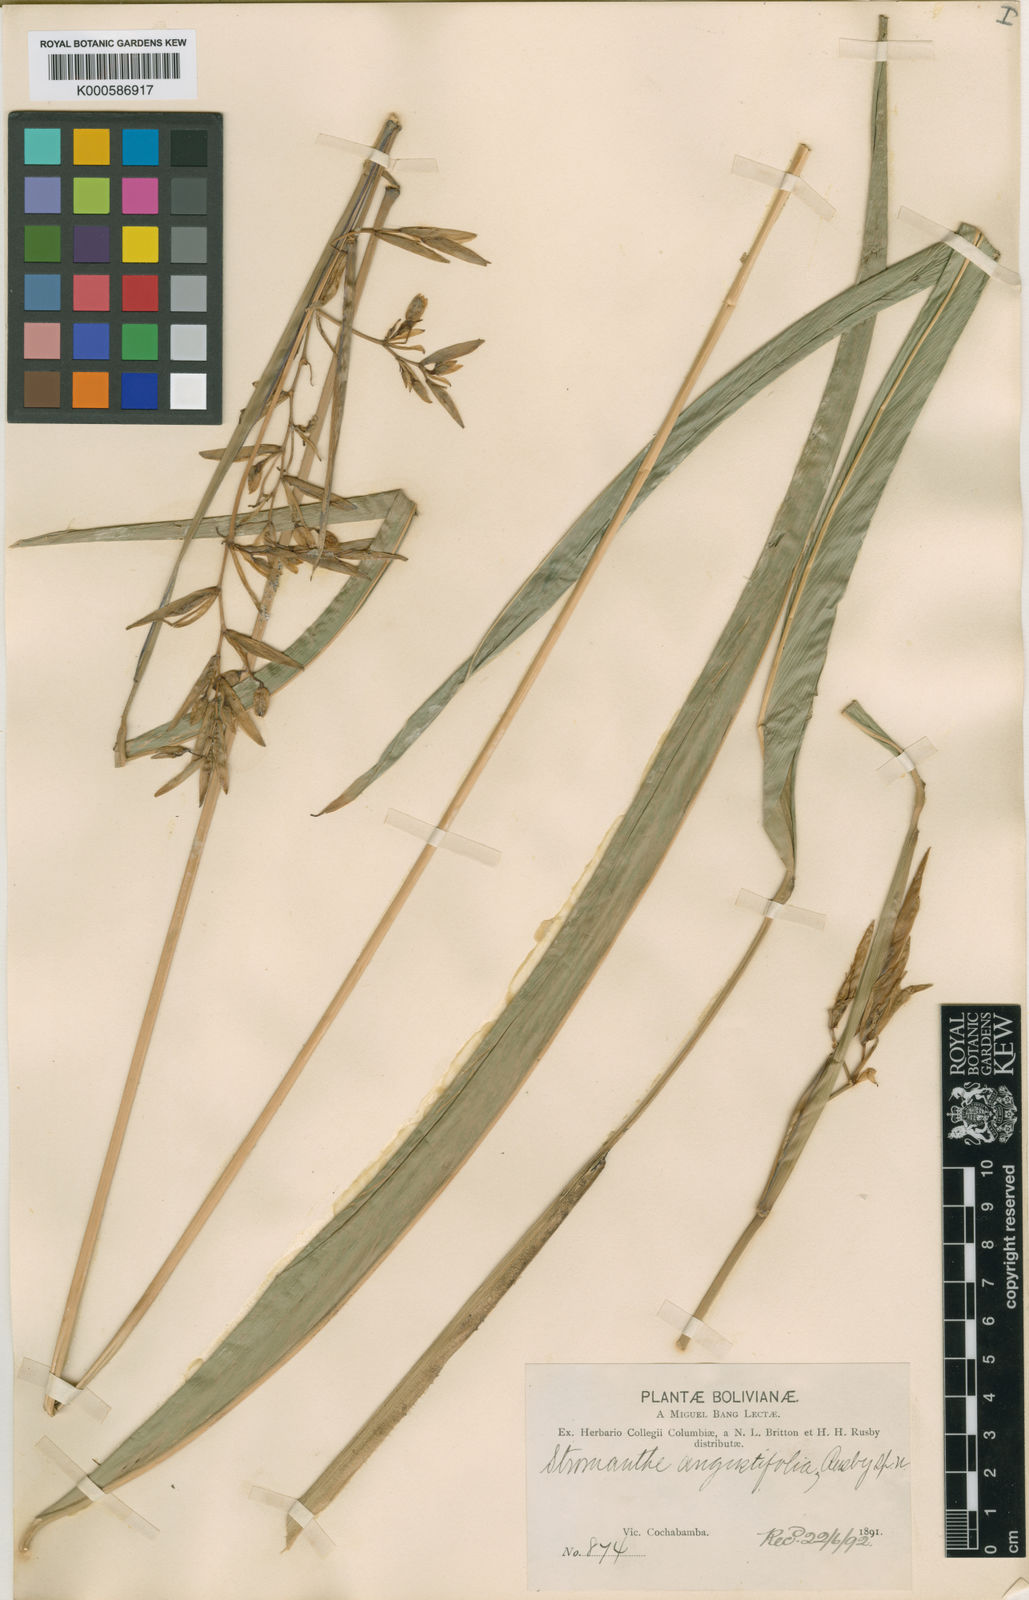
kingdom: Plantae
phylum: Tracheophyta
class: Liliopsida
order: Zingiberales
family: Marantaceae
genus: Stromanthe
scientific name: Stromanthe angustifolia
